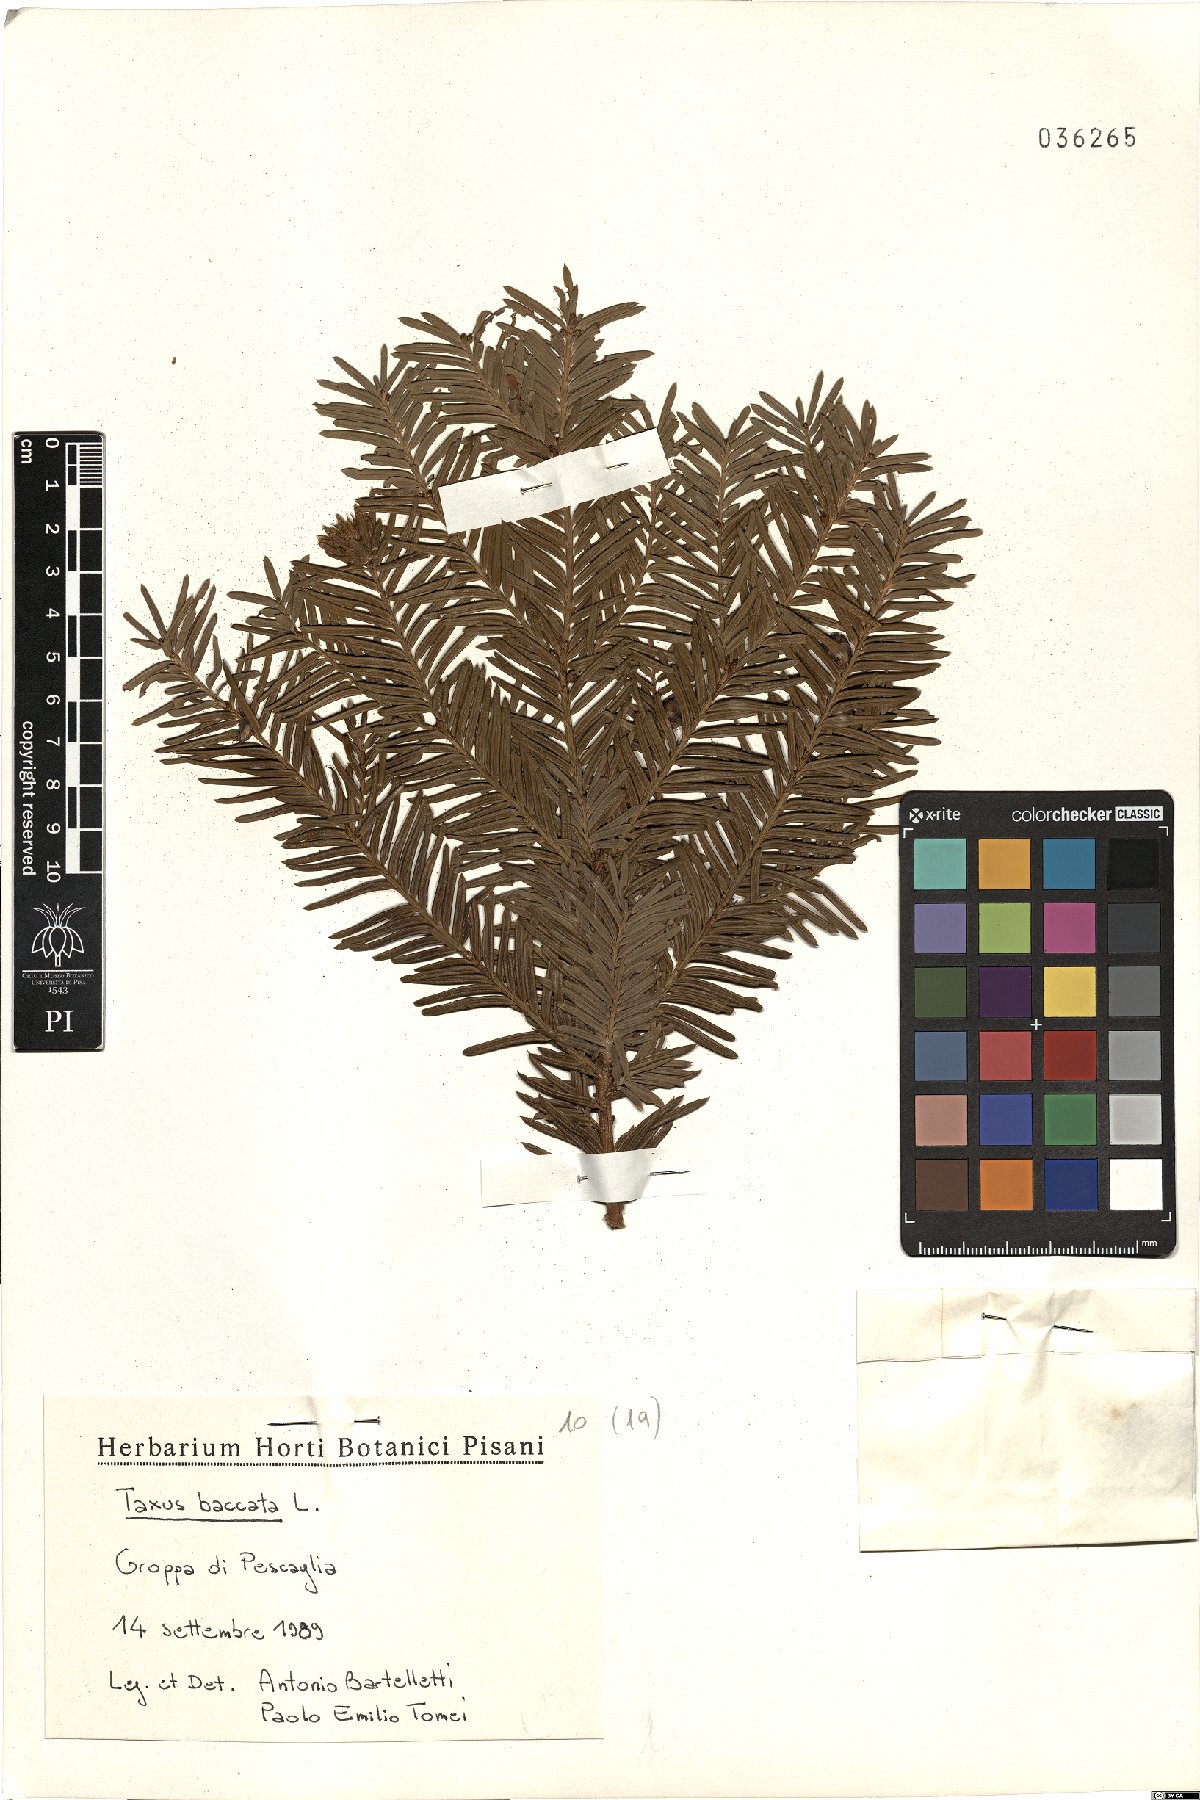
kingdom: Plantae
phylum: Tracheophyta
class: Pinopsida
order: Pinales
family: Taxaceae
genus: Taxus
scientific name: Taxus baccata
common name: Yew
